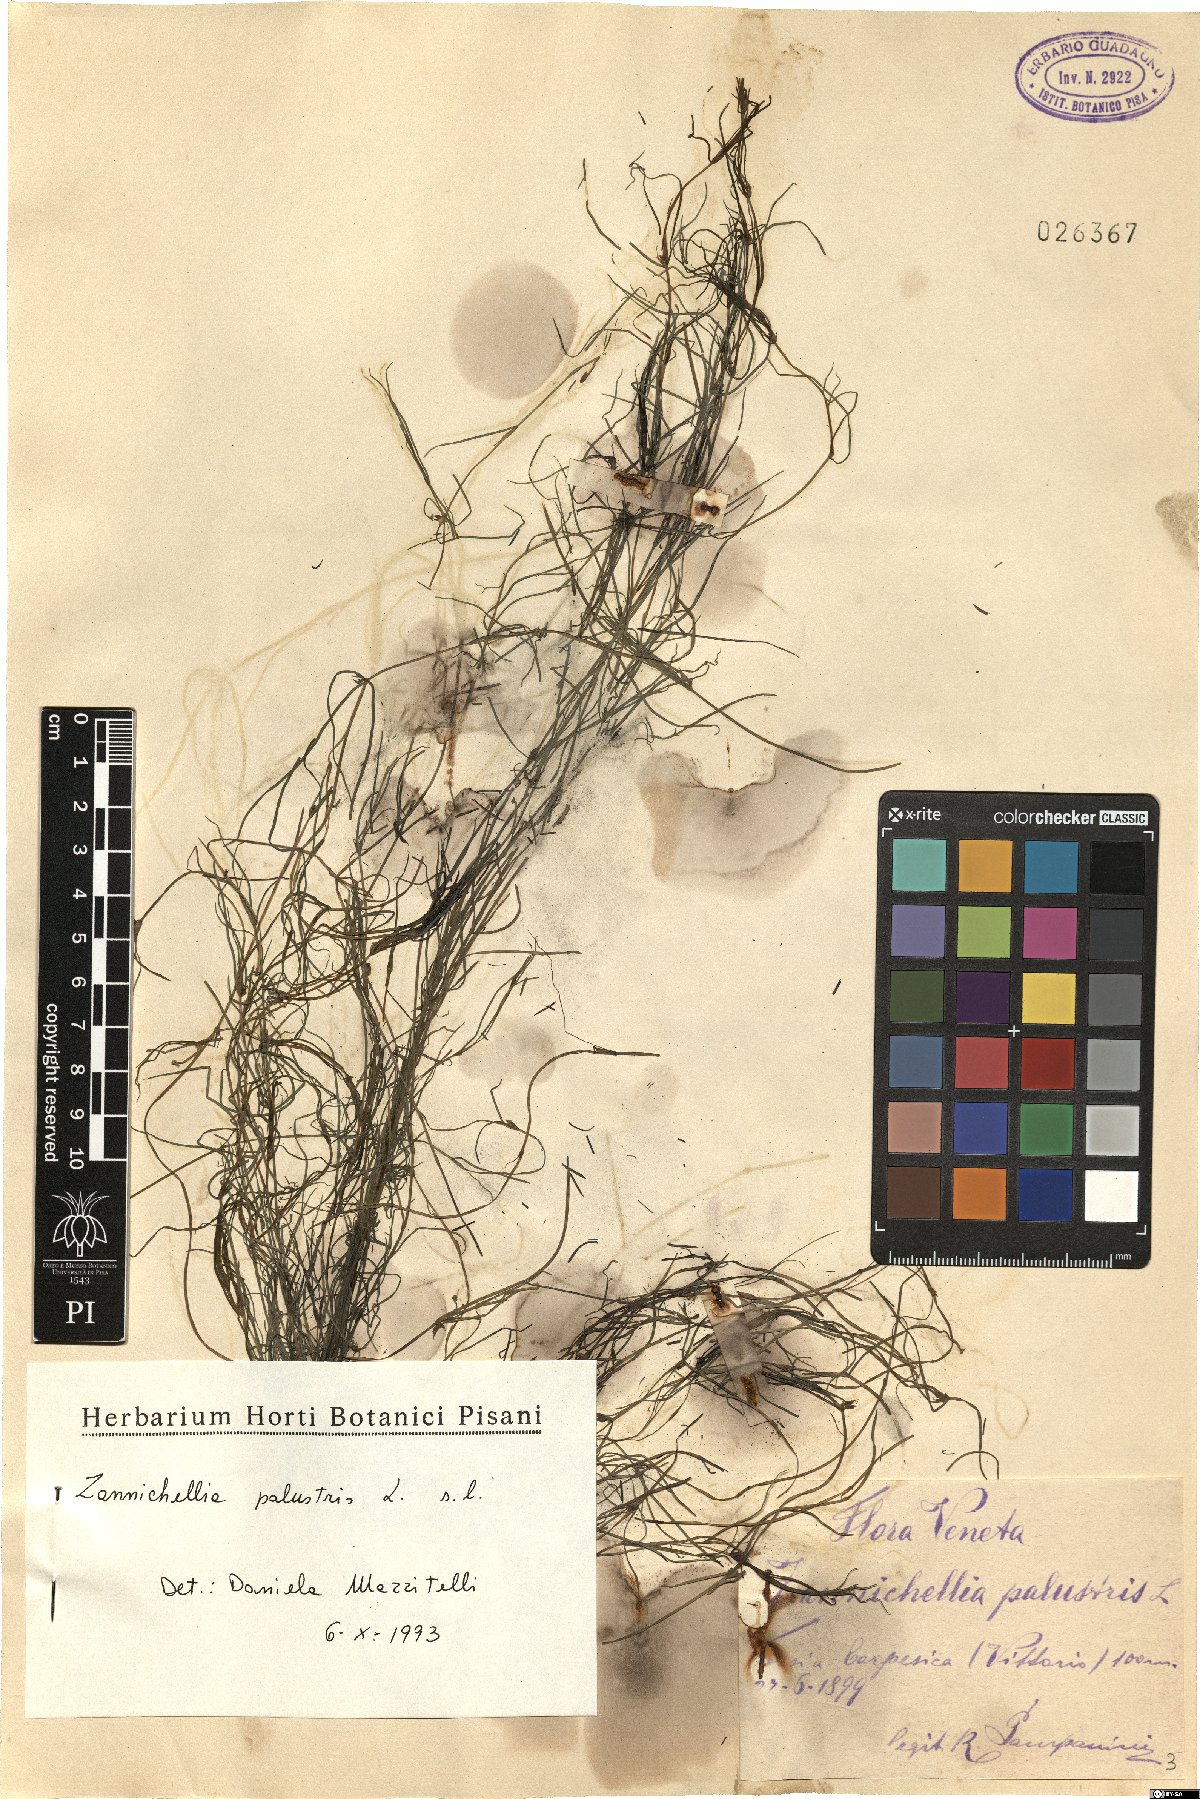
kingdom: Plantae
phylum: Tracheophyta
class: Liliopsida
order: Alismatales
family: Potamogetonaceae
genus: Zannichellia
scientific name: Zannichellia palustris
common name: Horned pondweed
